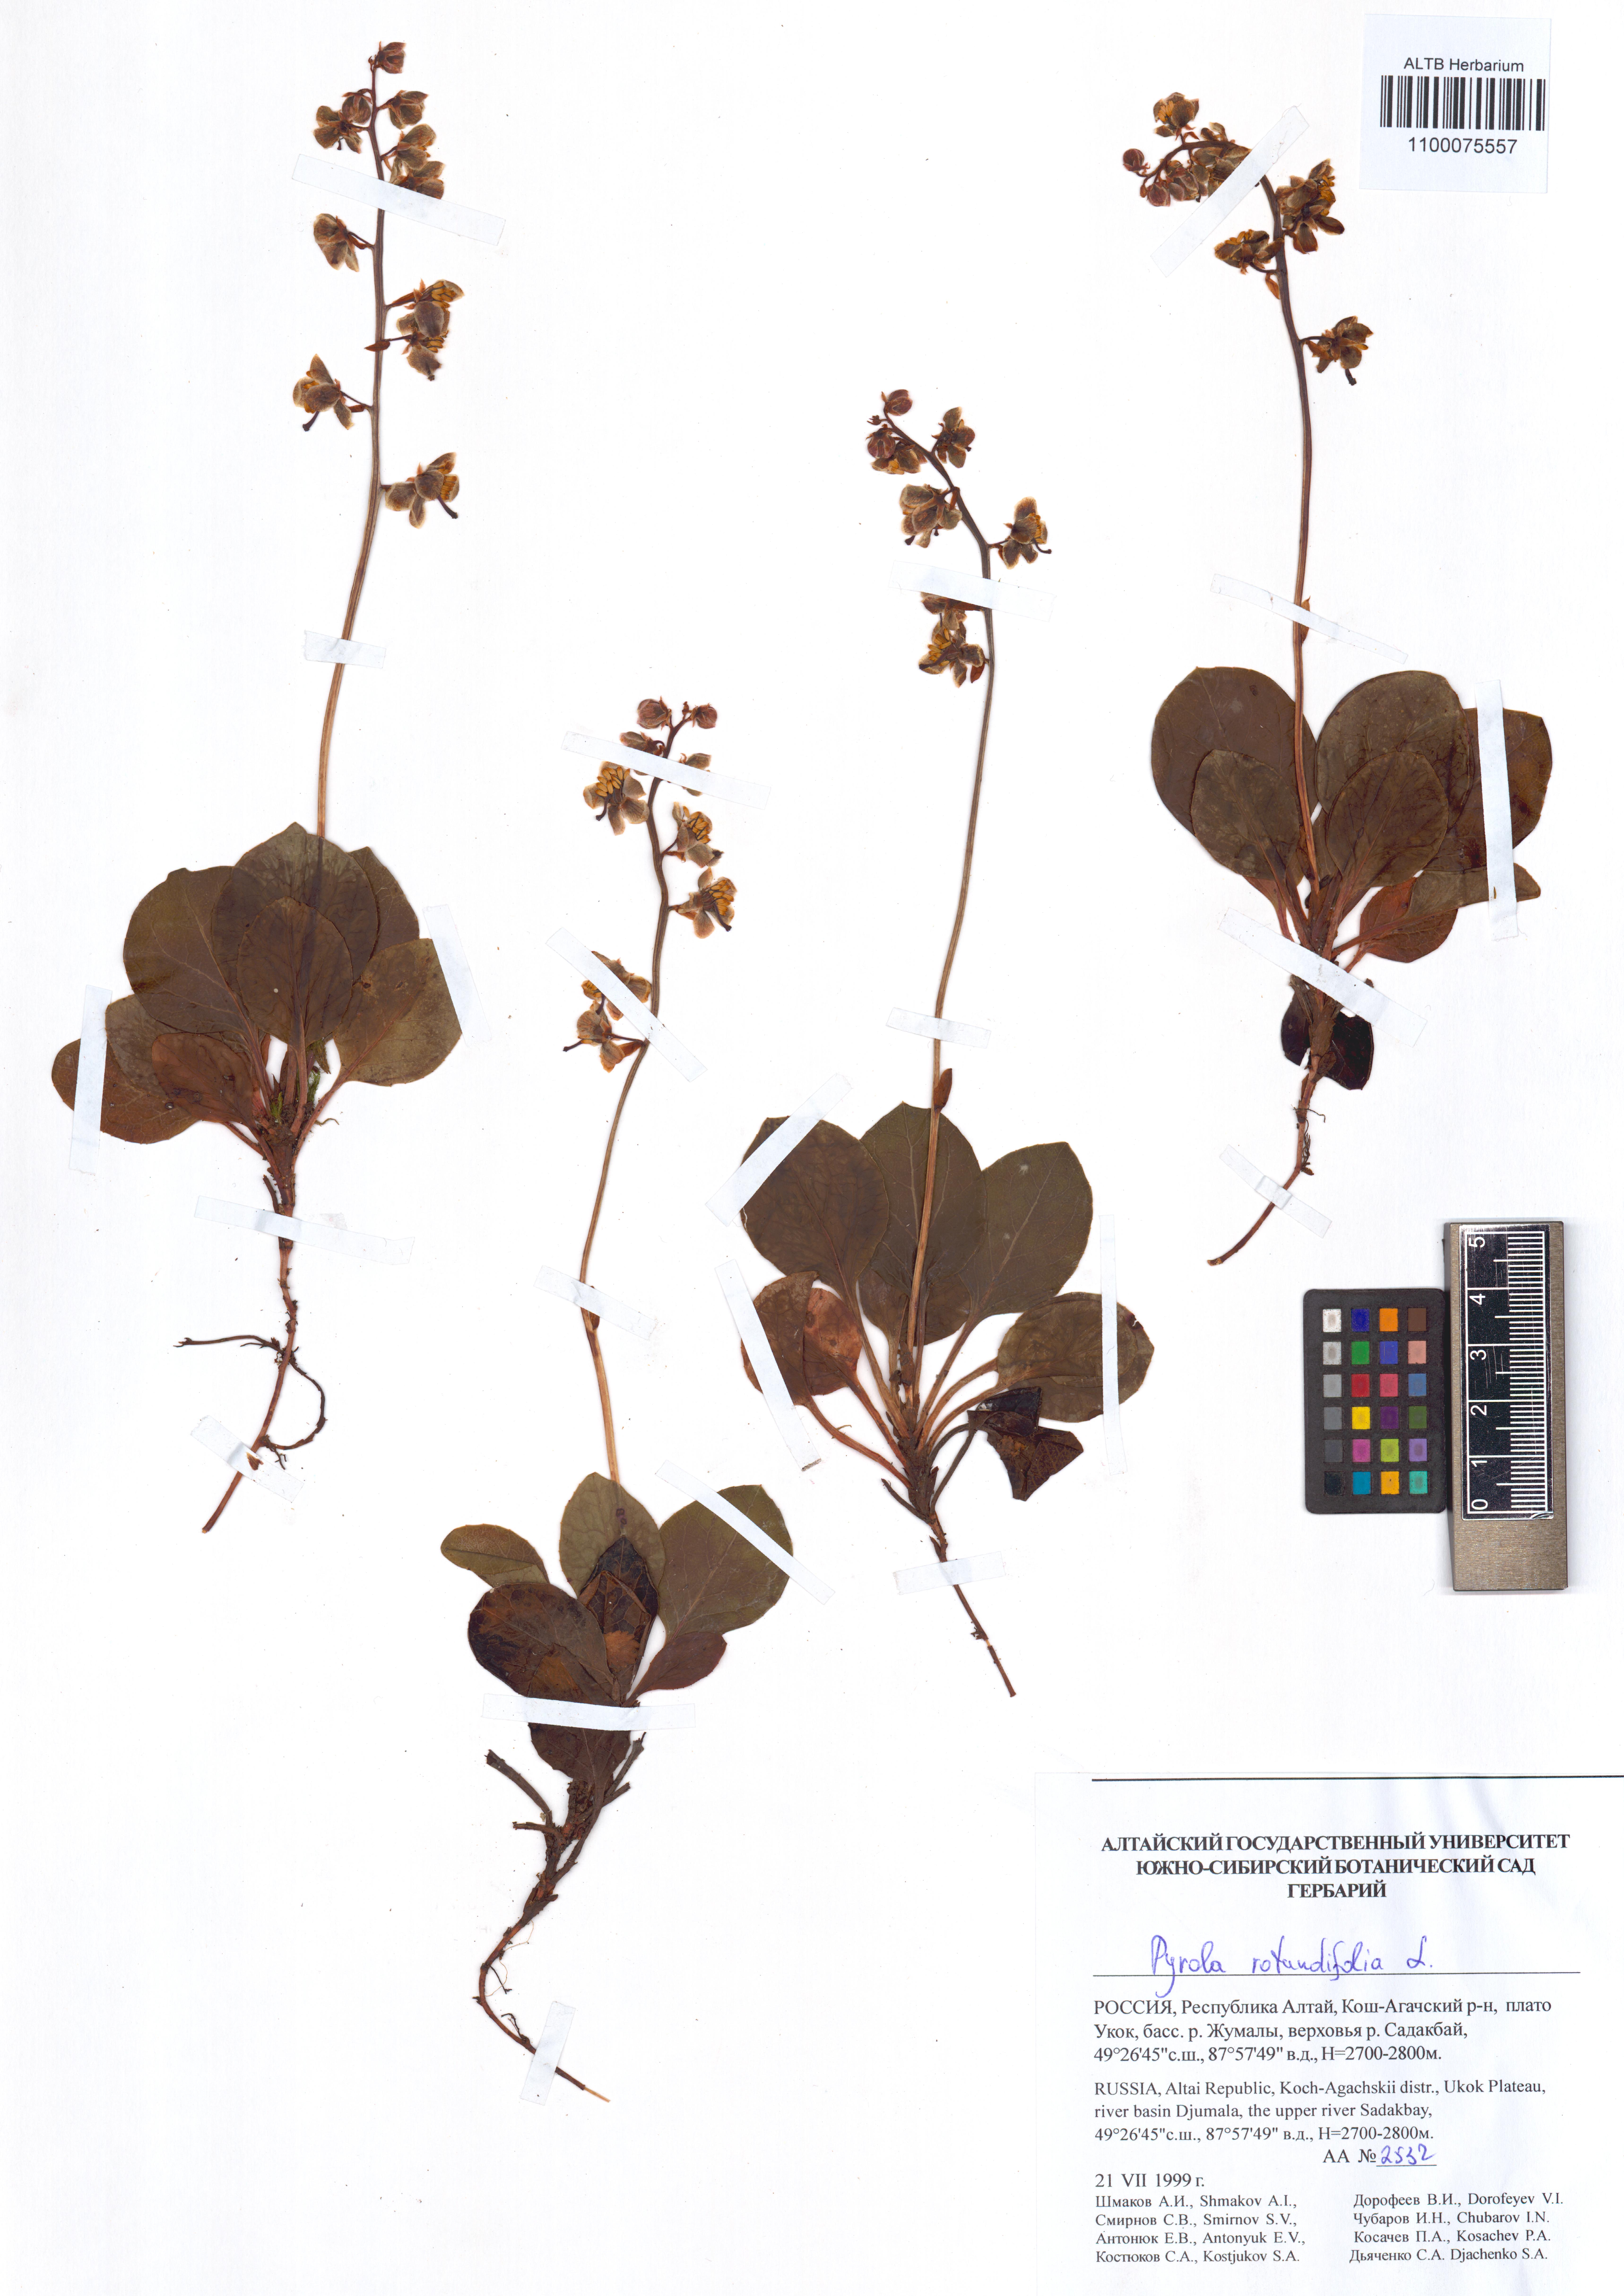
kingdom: Plantae
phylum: Tracheophyta
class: Magnoliopsida
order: Ericales
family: Ericaceae
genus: Pyrola
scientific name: Pyrola rotundifolia
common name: Round-leaved wintergreen
